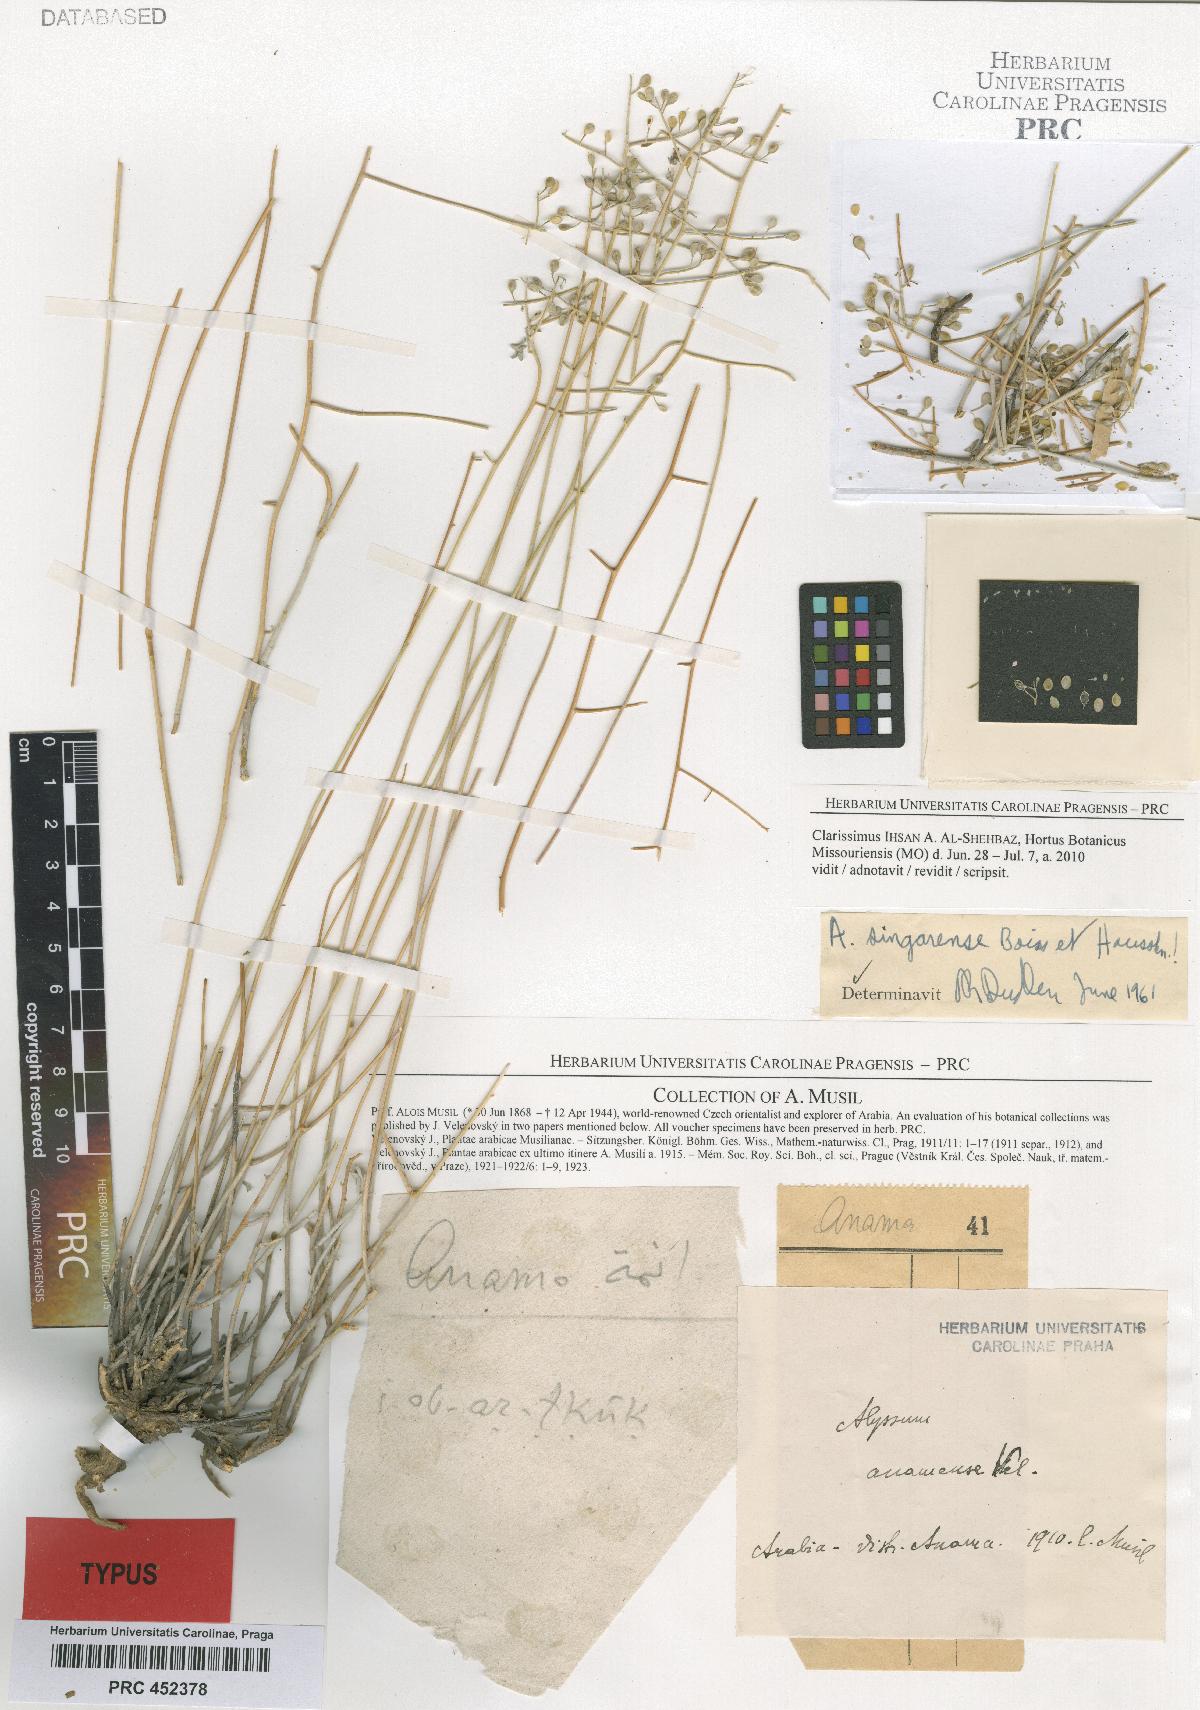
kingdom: Plantae
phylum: Tracheophyta
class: Magnoliopsida
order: Brassicales
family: Brassicaceae
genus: Odontarrhena
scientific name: Odontarrhena singarensis
